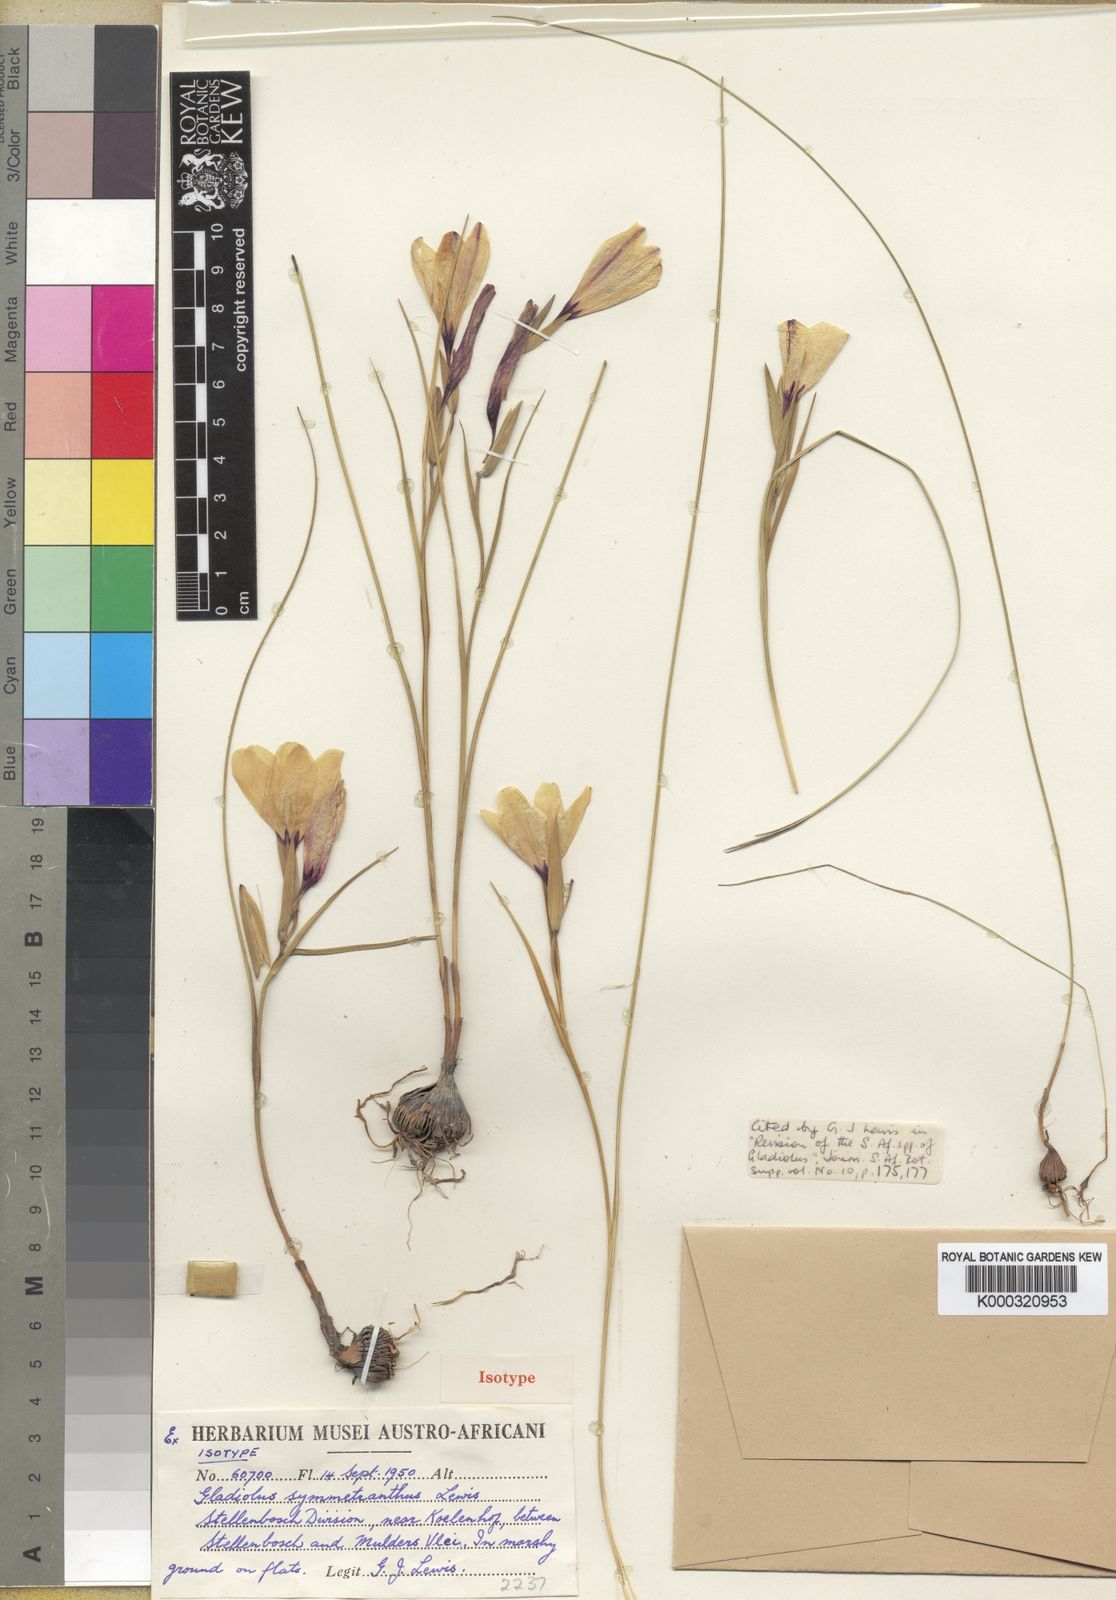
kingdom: Plantae
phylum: Tracheophyta
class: Liliopsida
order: Asparagales
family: Iridaceae
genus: Gladiolus
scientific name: Gladiolus trichonemifolius
